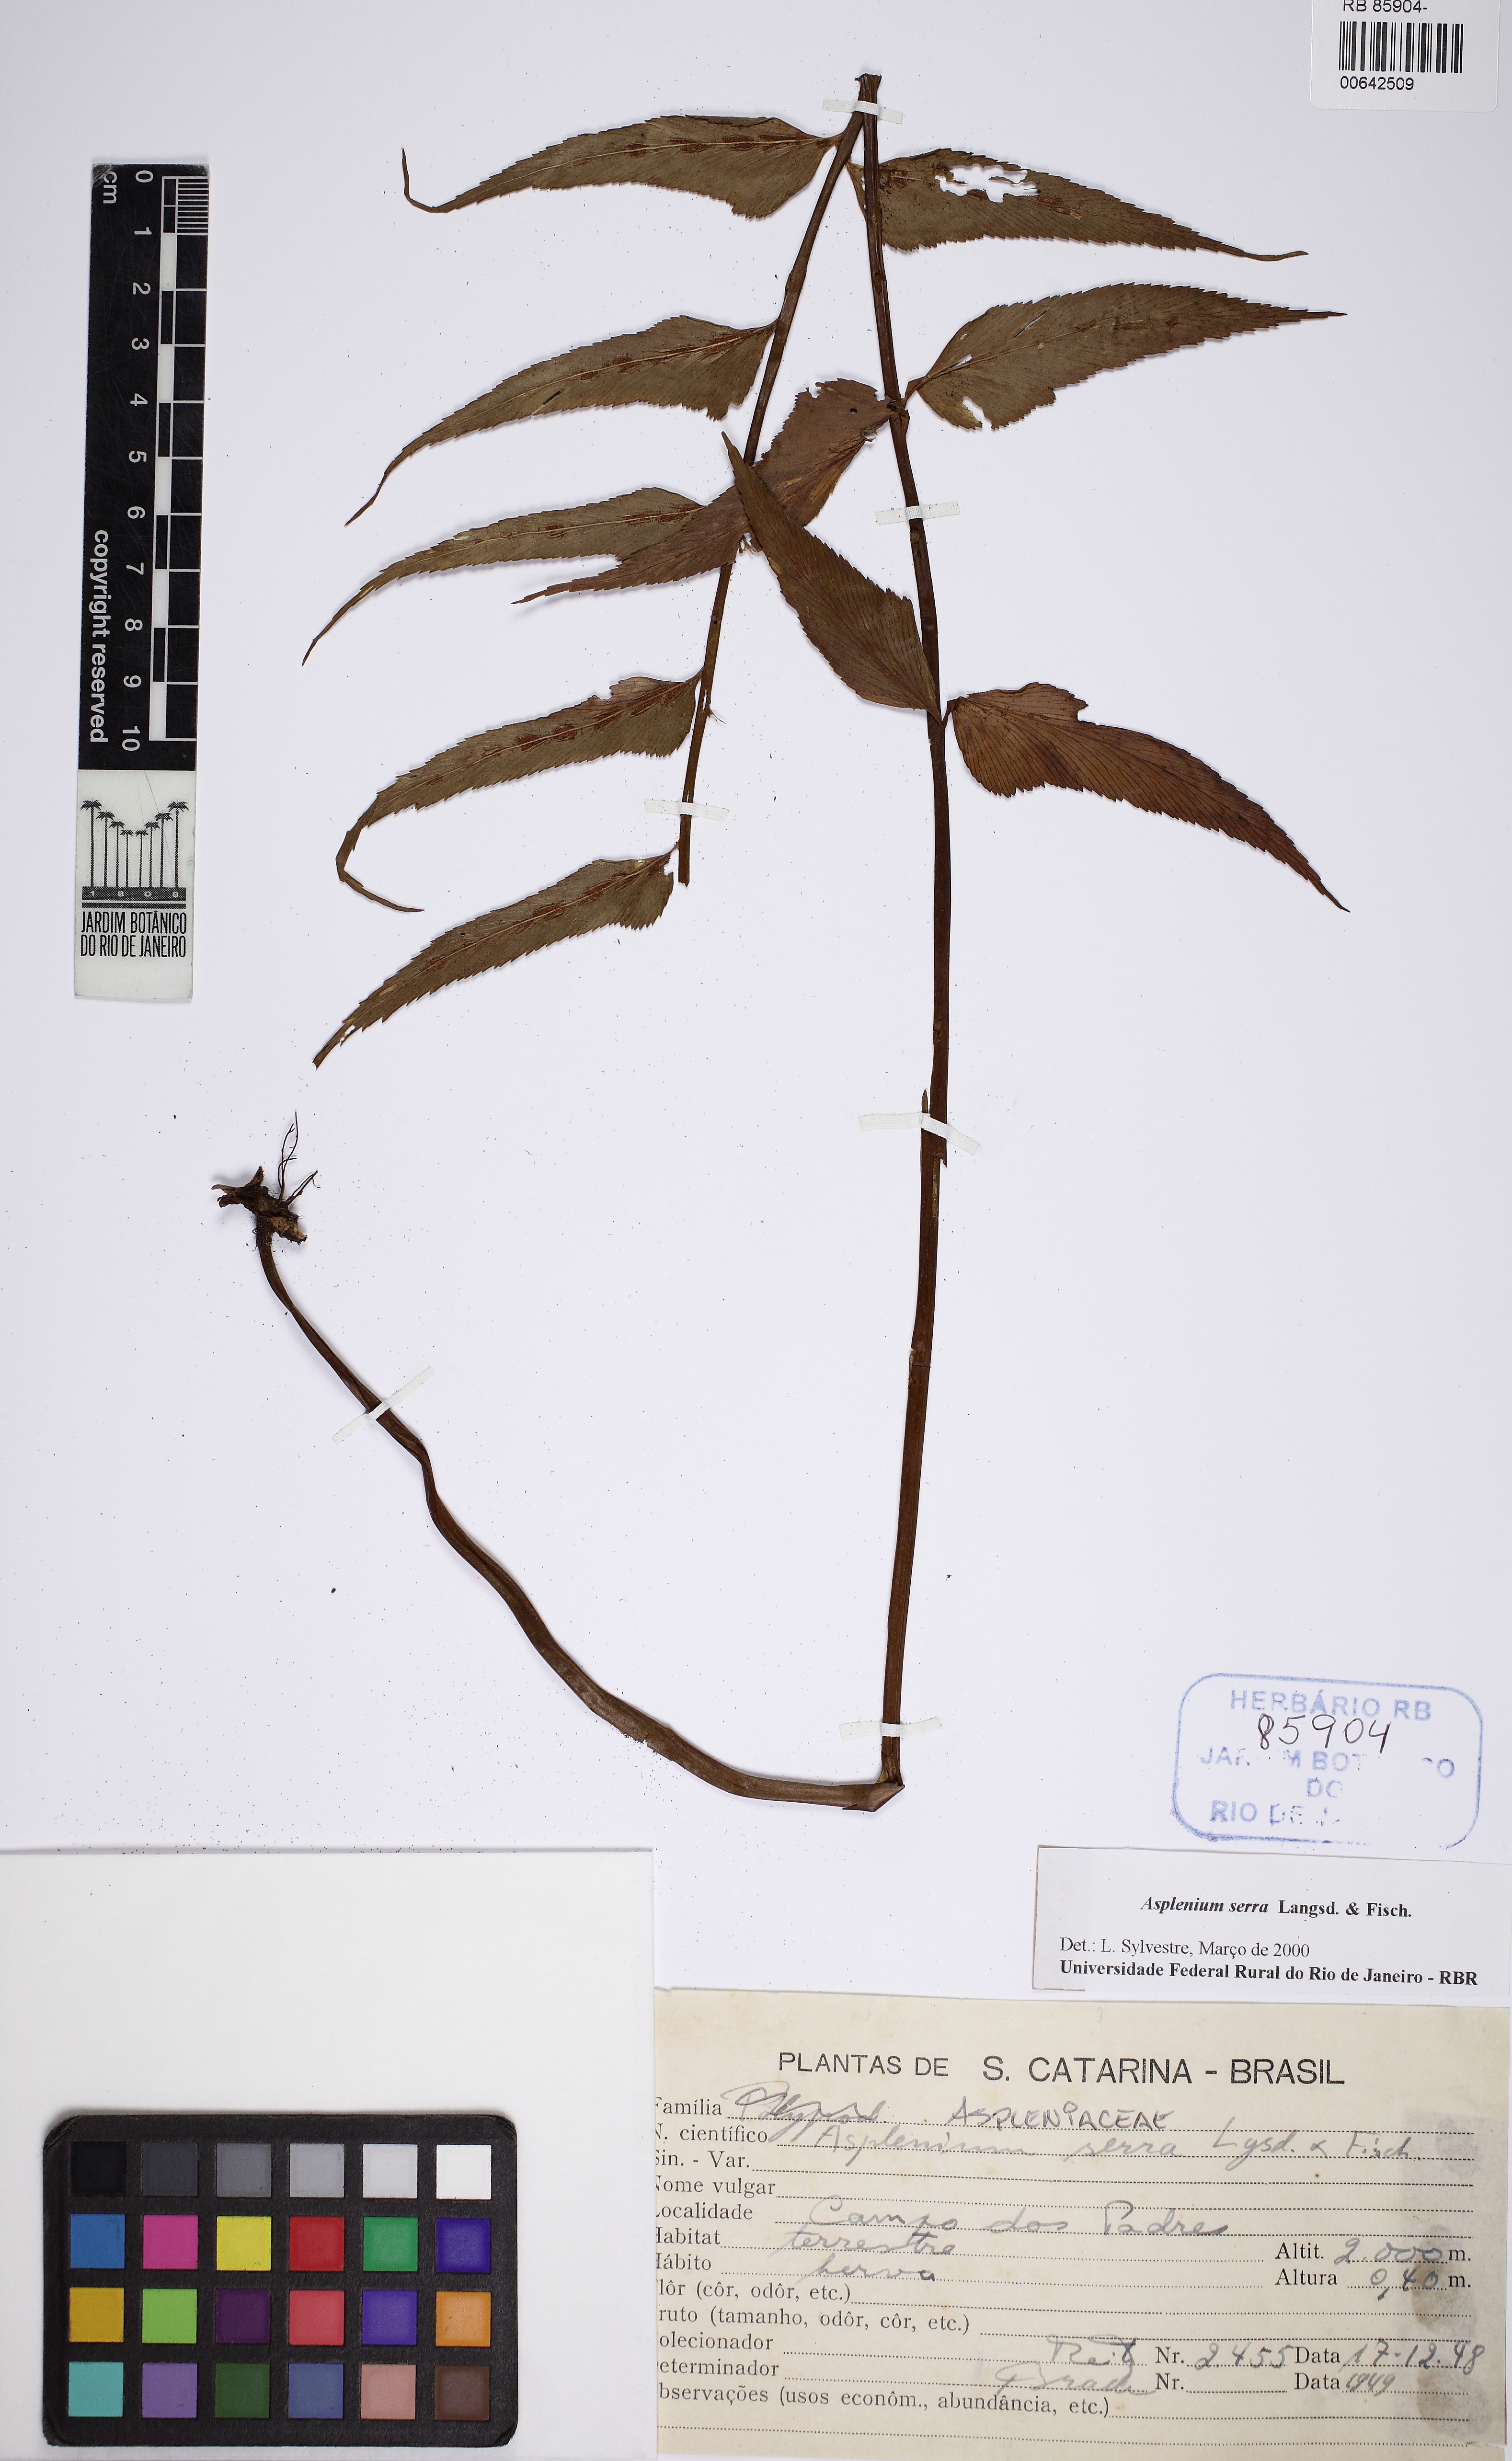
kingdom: Plantae
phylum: Tracheophyta
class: Polypodiopsida
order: Polypodiales
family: Aspleniaceae
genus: Asplenium
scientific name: Asplenium serra
